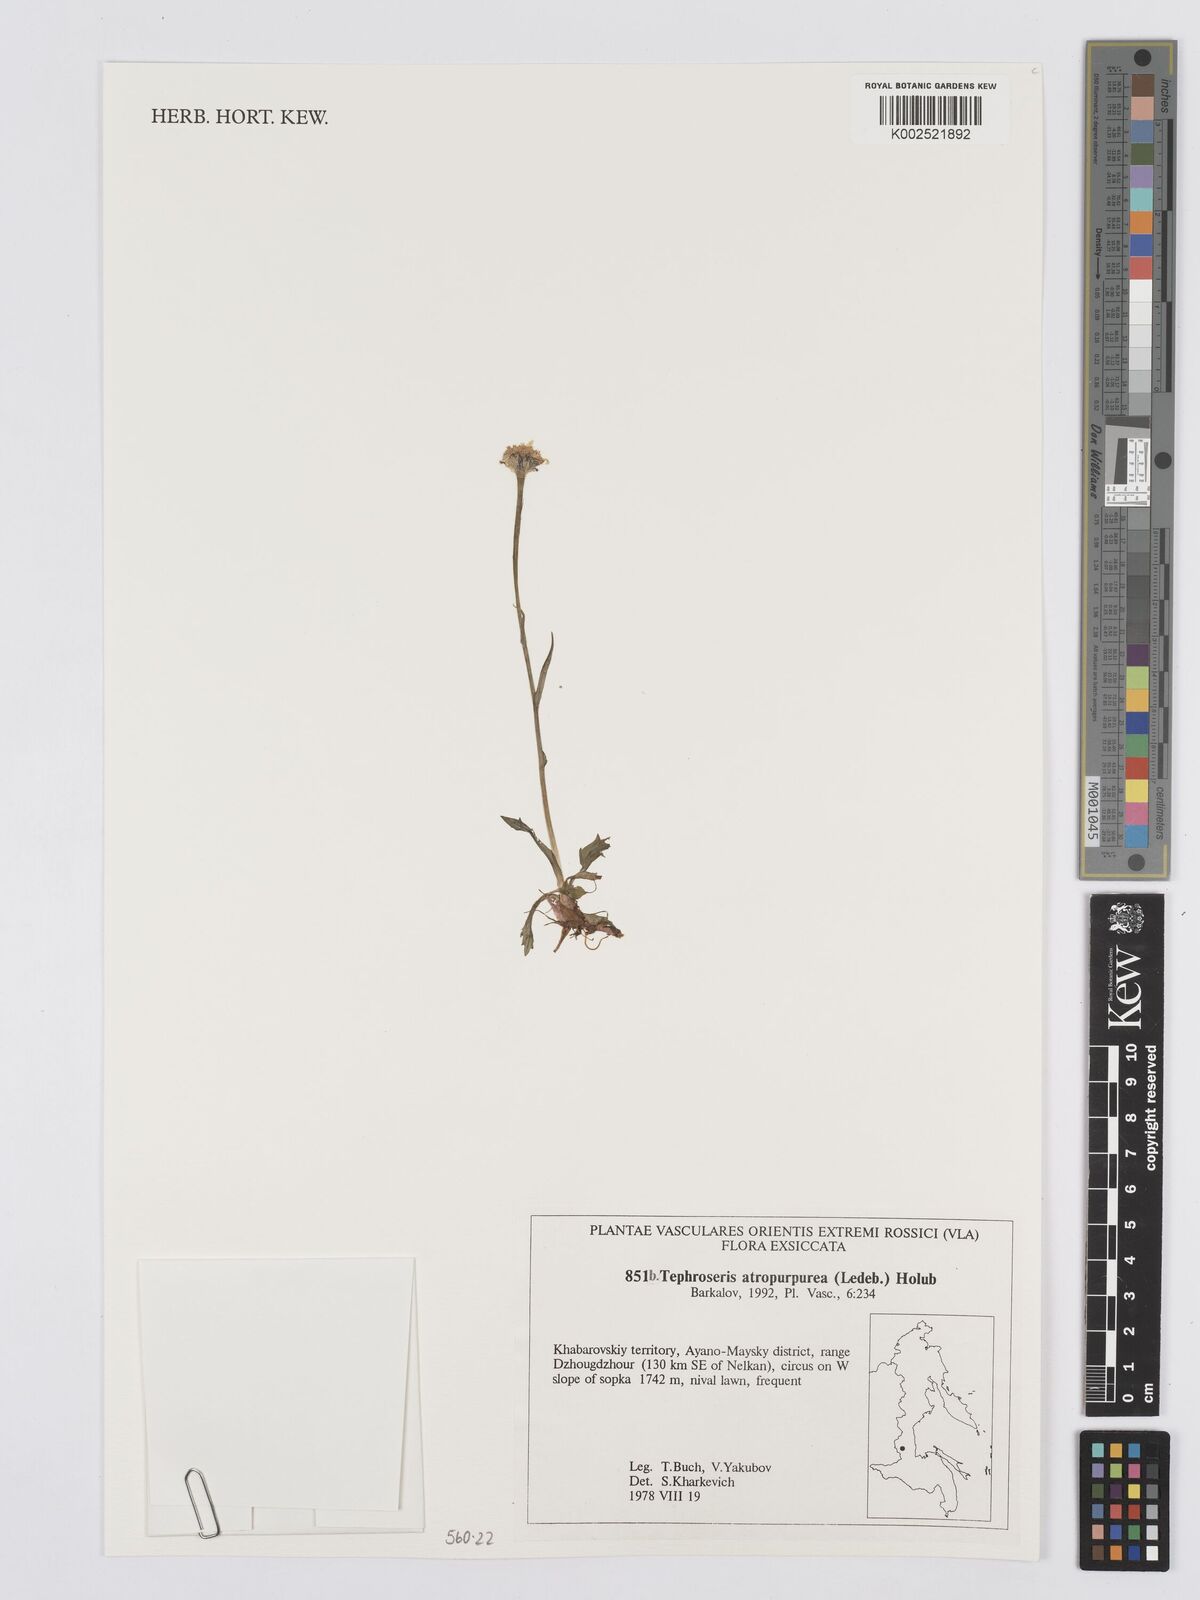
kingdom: Plantae
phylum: Tracheophyta
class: Magnoliopsida
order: Asterales
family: Asteraceae
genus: Tephroseris
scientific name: Tephroseris integrifolia
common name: Field fleawort
